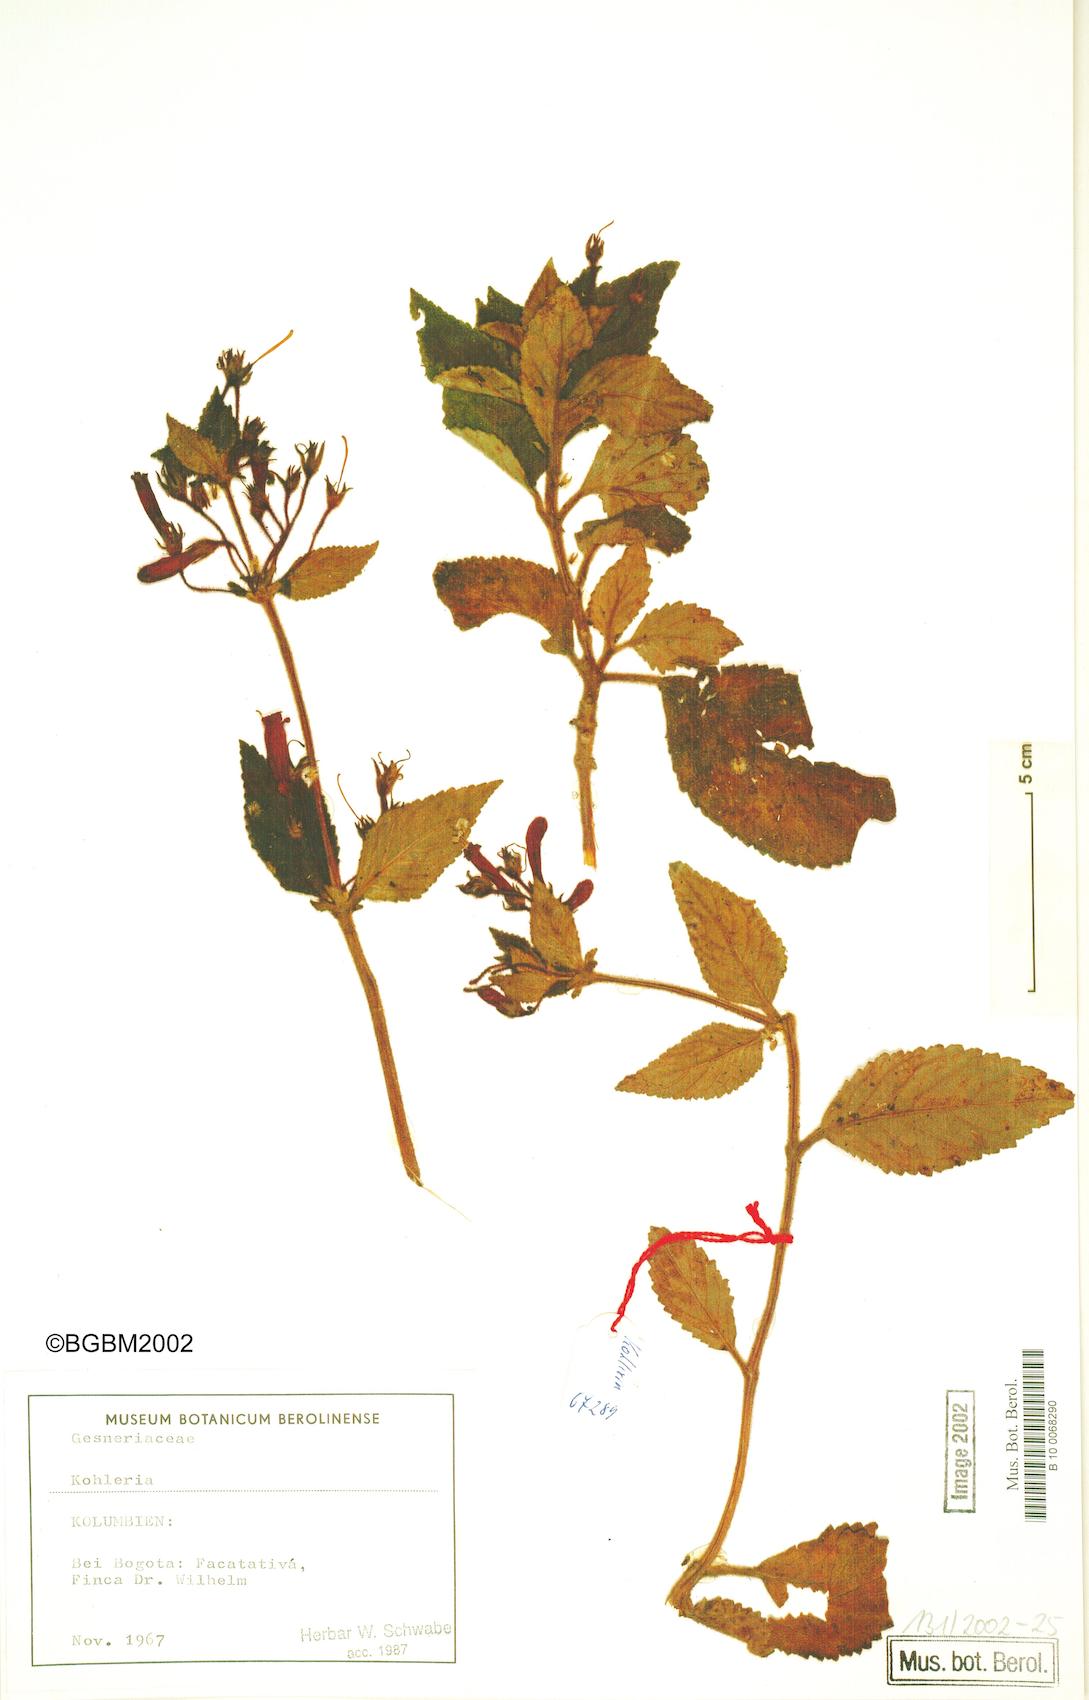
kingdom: Plantae
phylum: Tracheophyta
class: Magnoliopsida
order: Lamiales
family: Gesneriaceae
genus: Kohleria
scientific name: Kohleria
